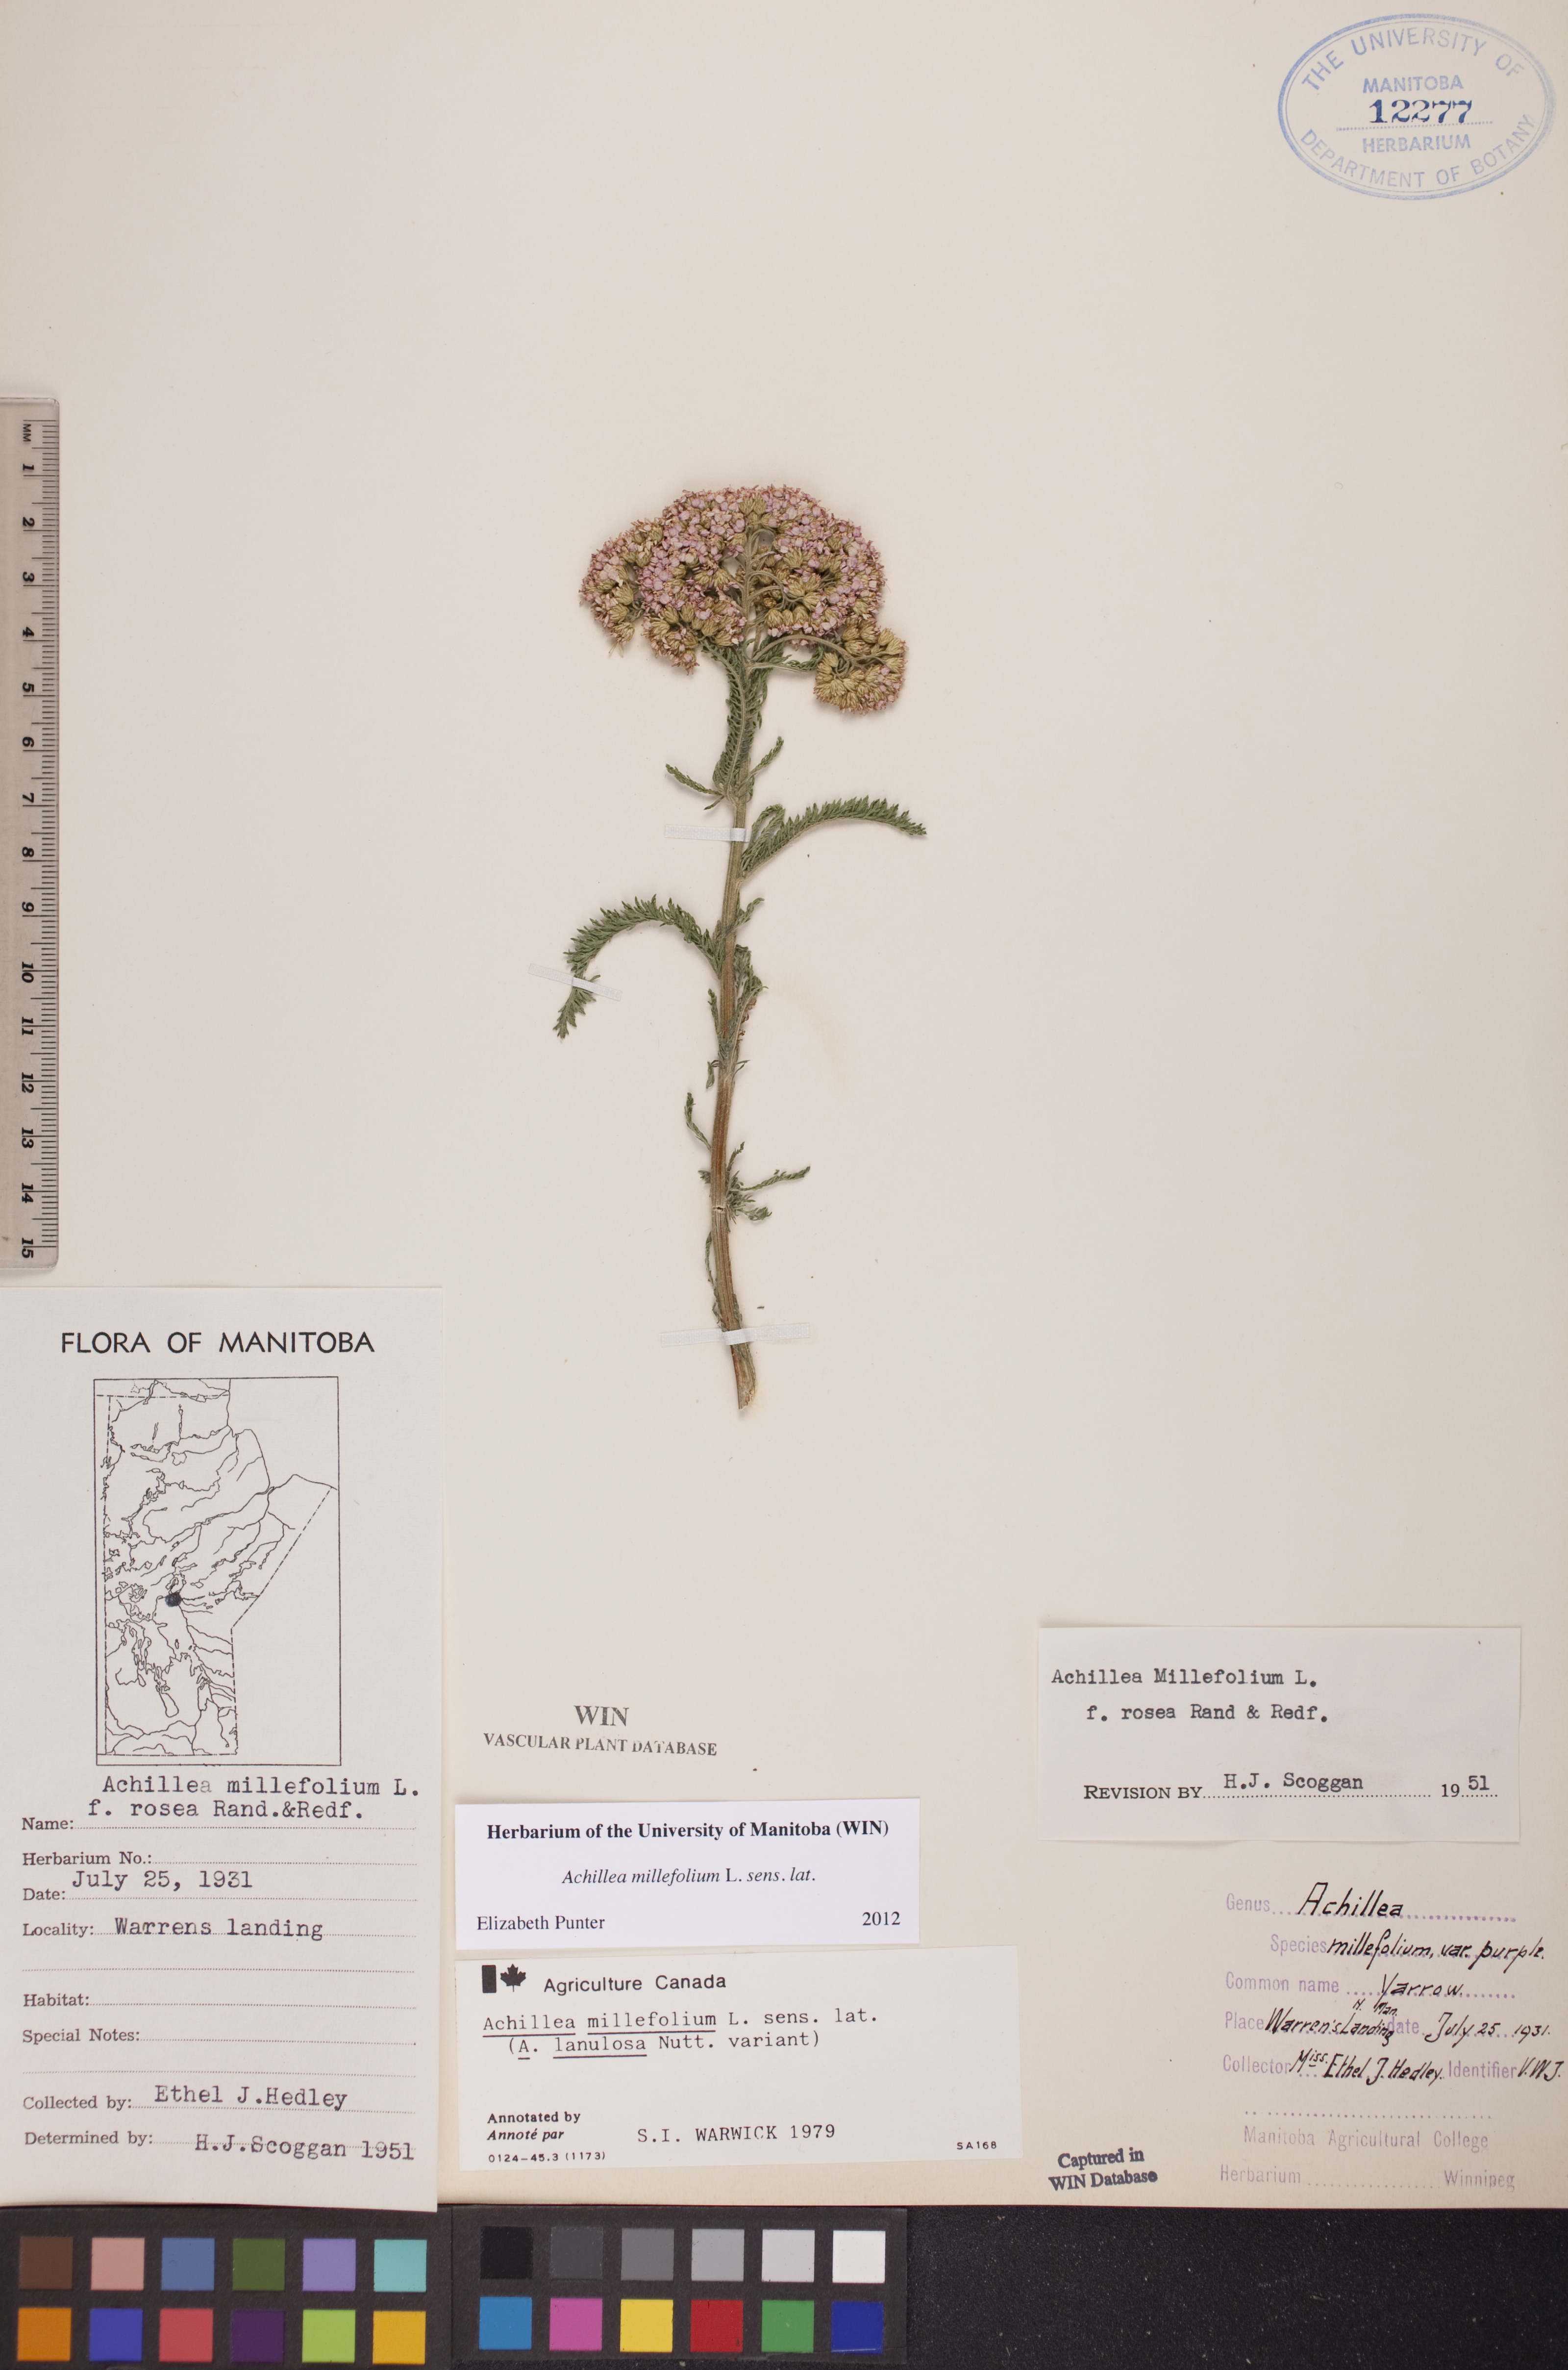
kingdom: Plantae
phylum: Tracheophyta
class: Magnoliopsida
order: Asterales
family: Asteraceae
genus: Achillea
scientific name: Achillea millefolium
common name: Yarrow
